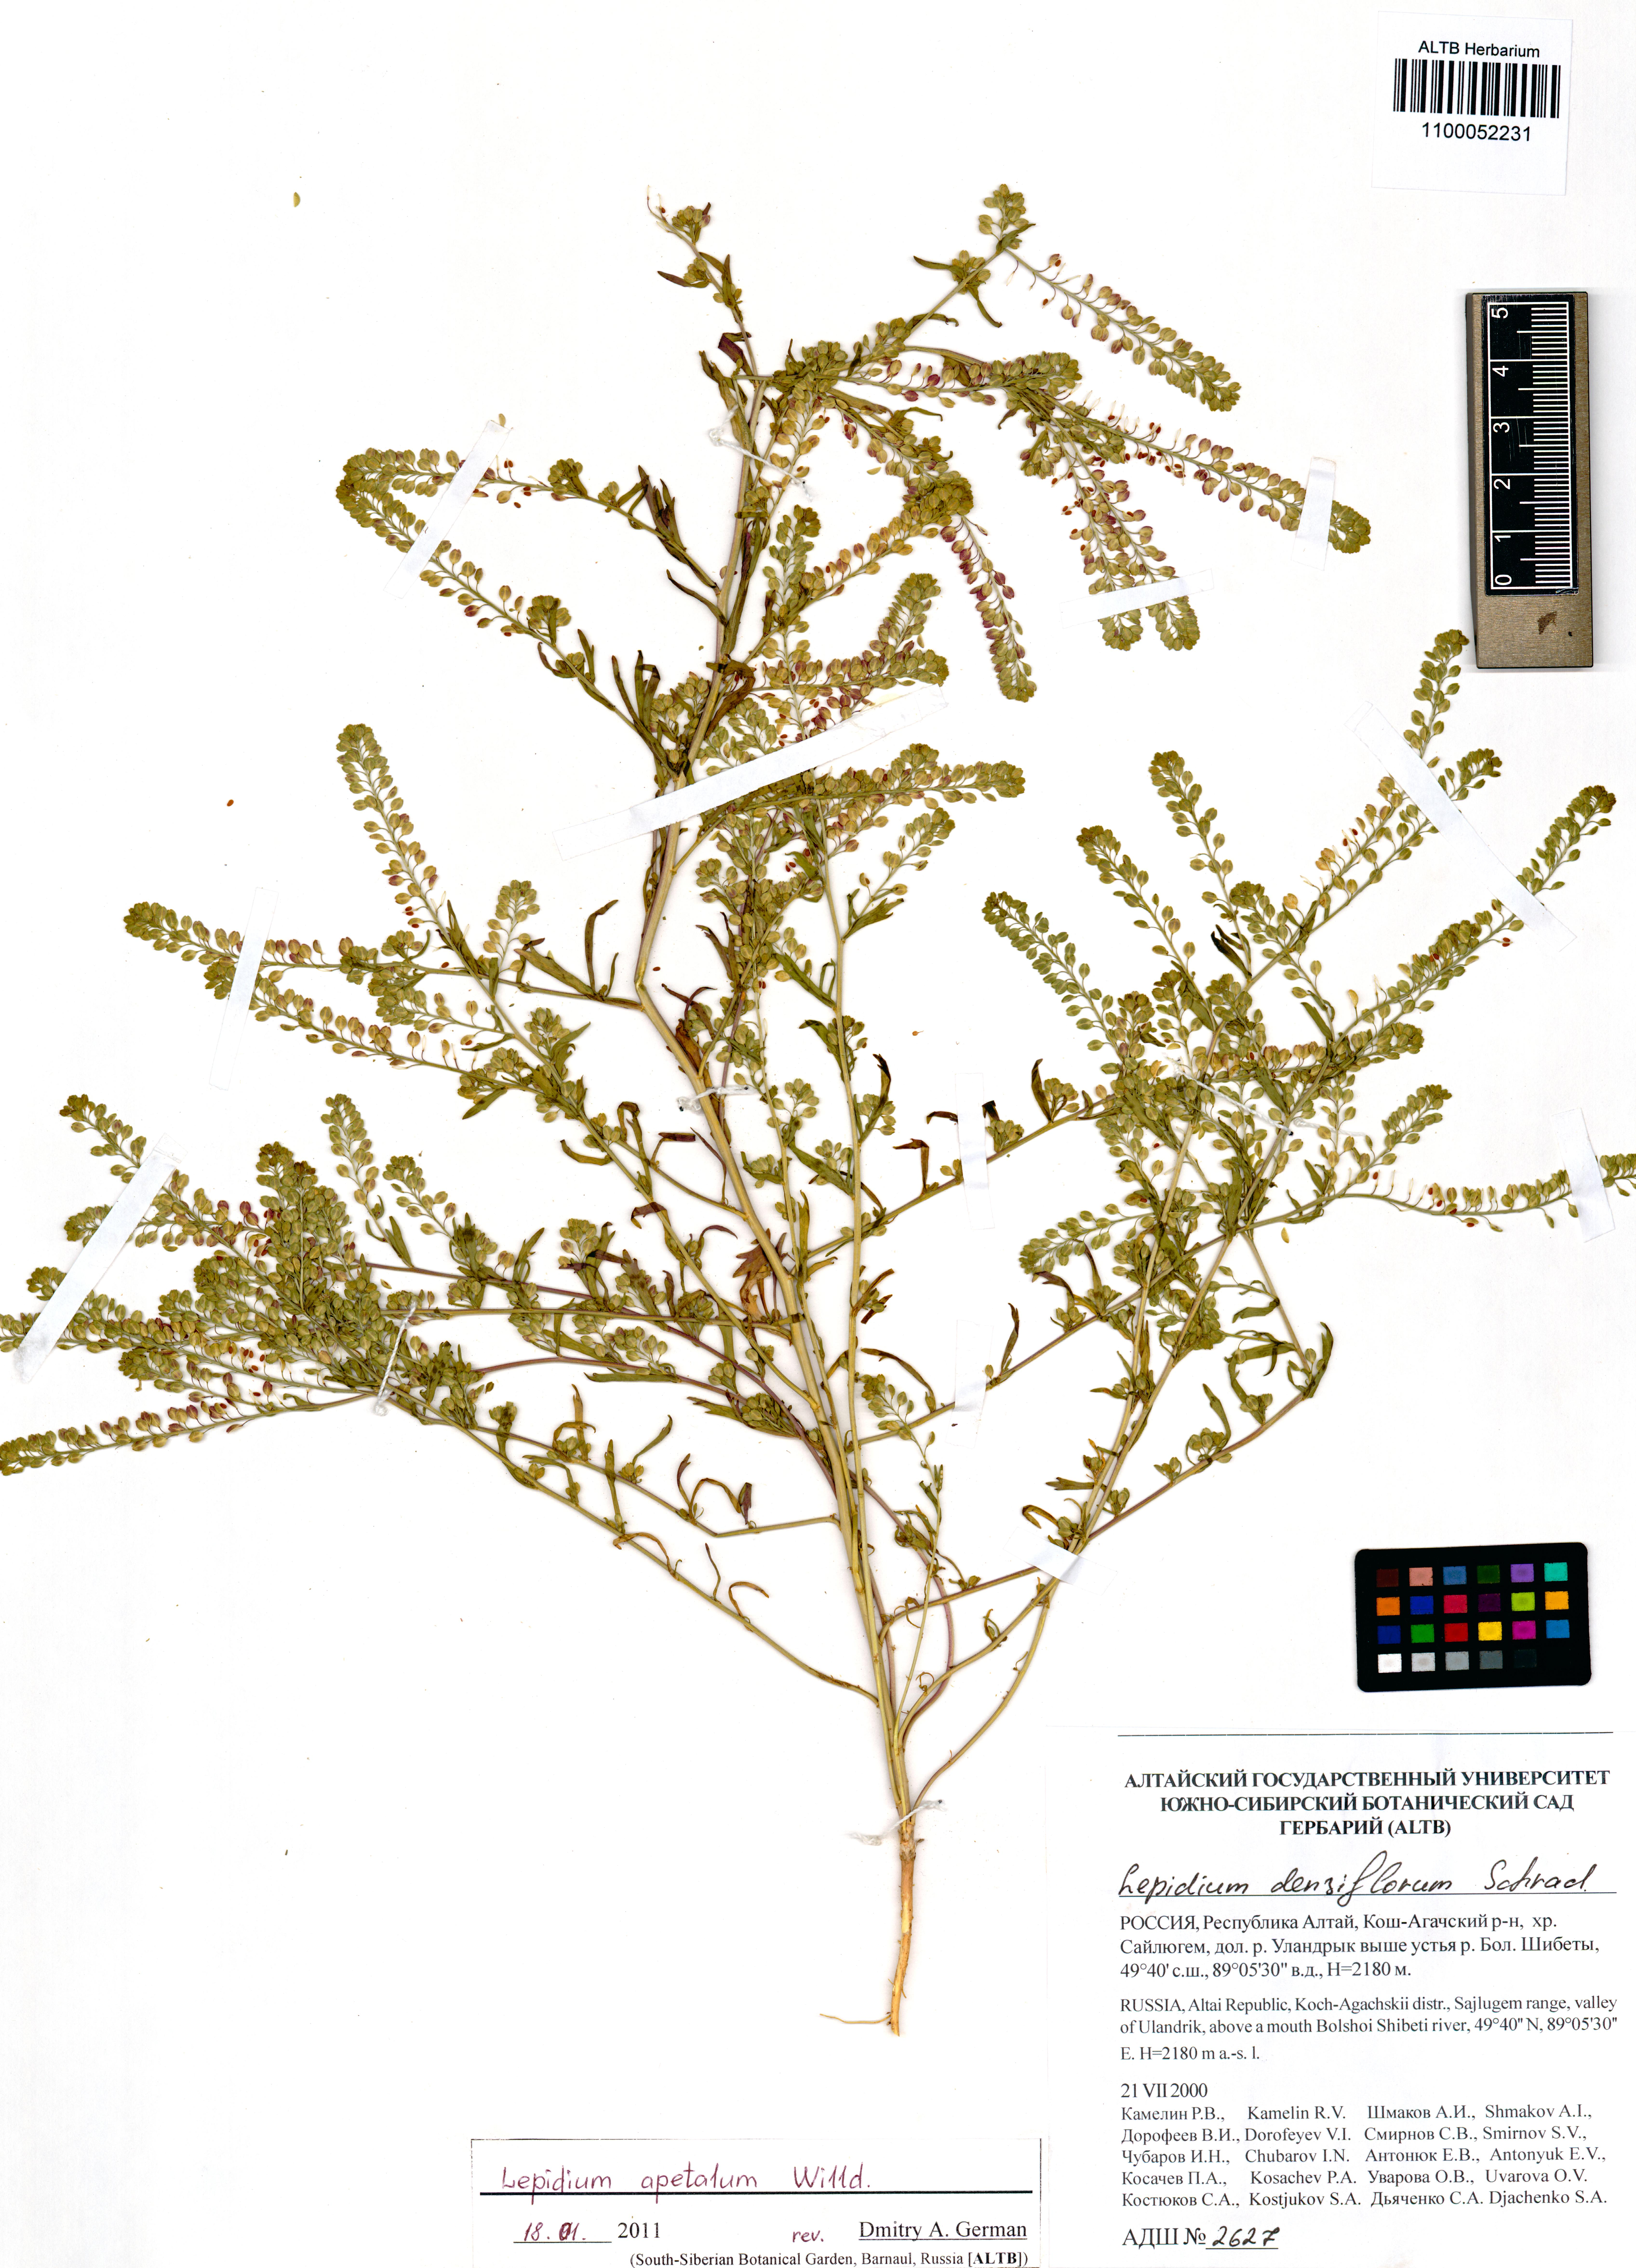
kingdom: Plantae
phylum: Tracheophyta
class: Magnoliopsida
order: Brassicales
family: Brassicaceae
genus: Lepidium
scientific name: Lepidium apetalum
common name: Pepperweed
